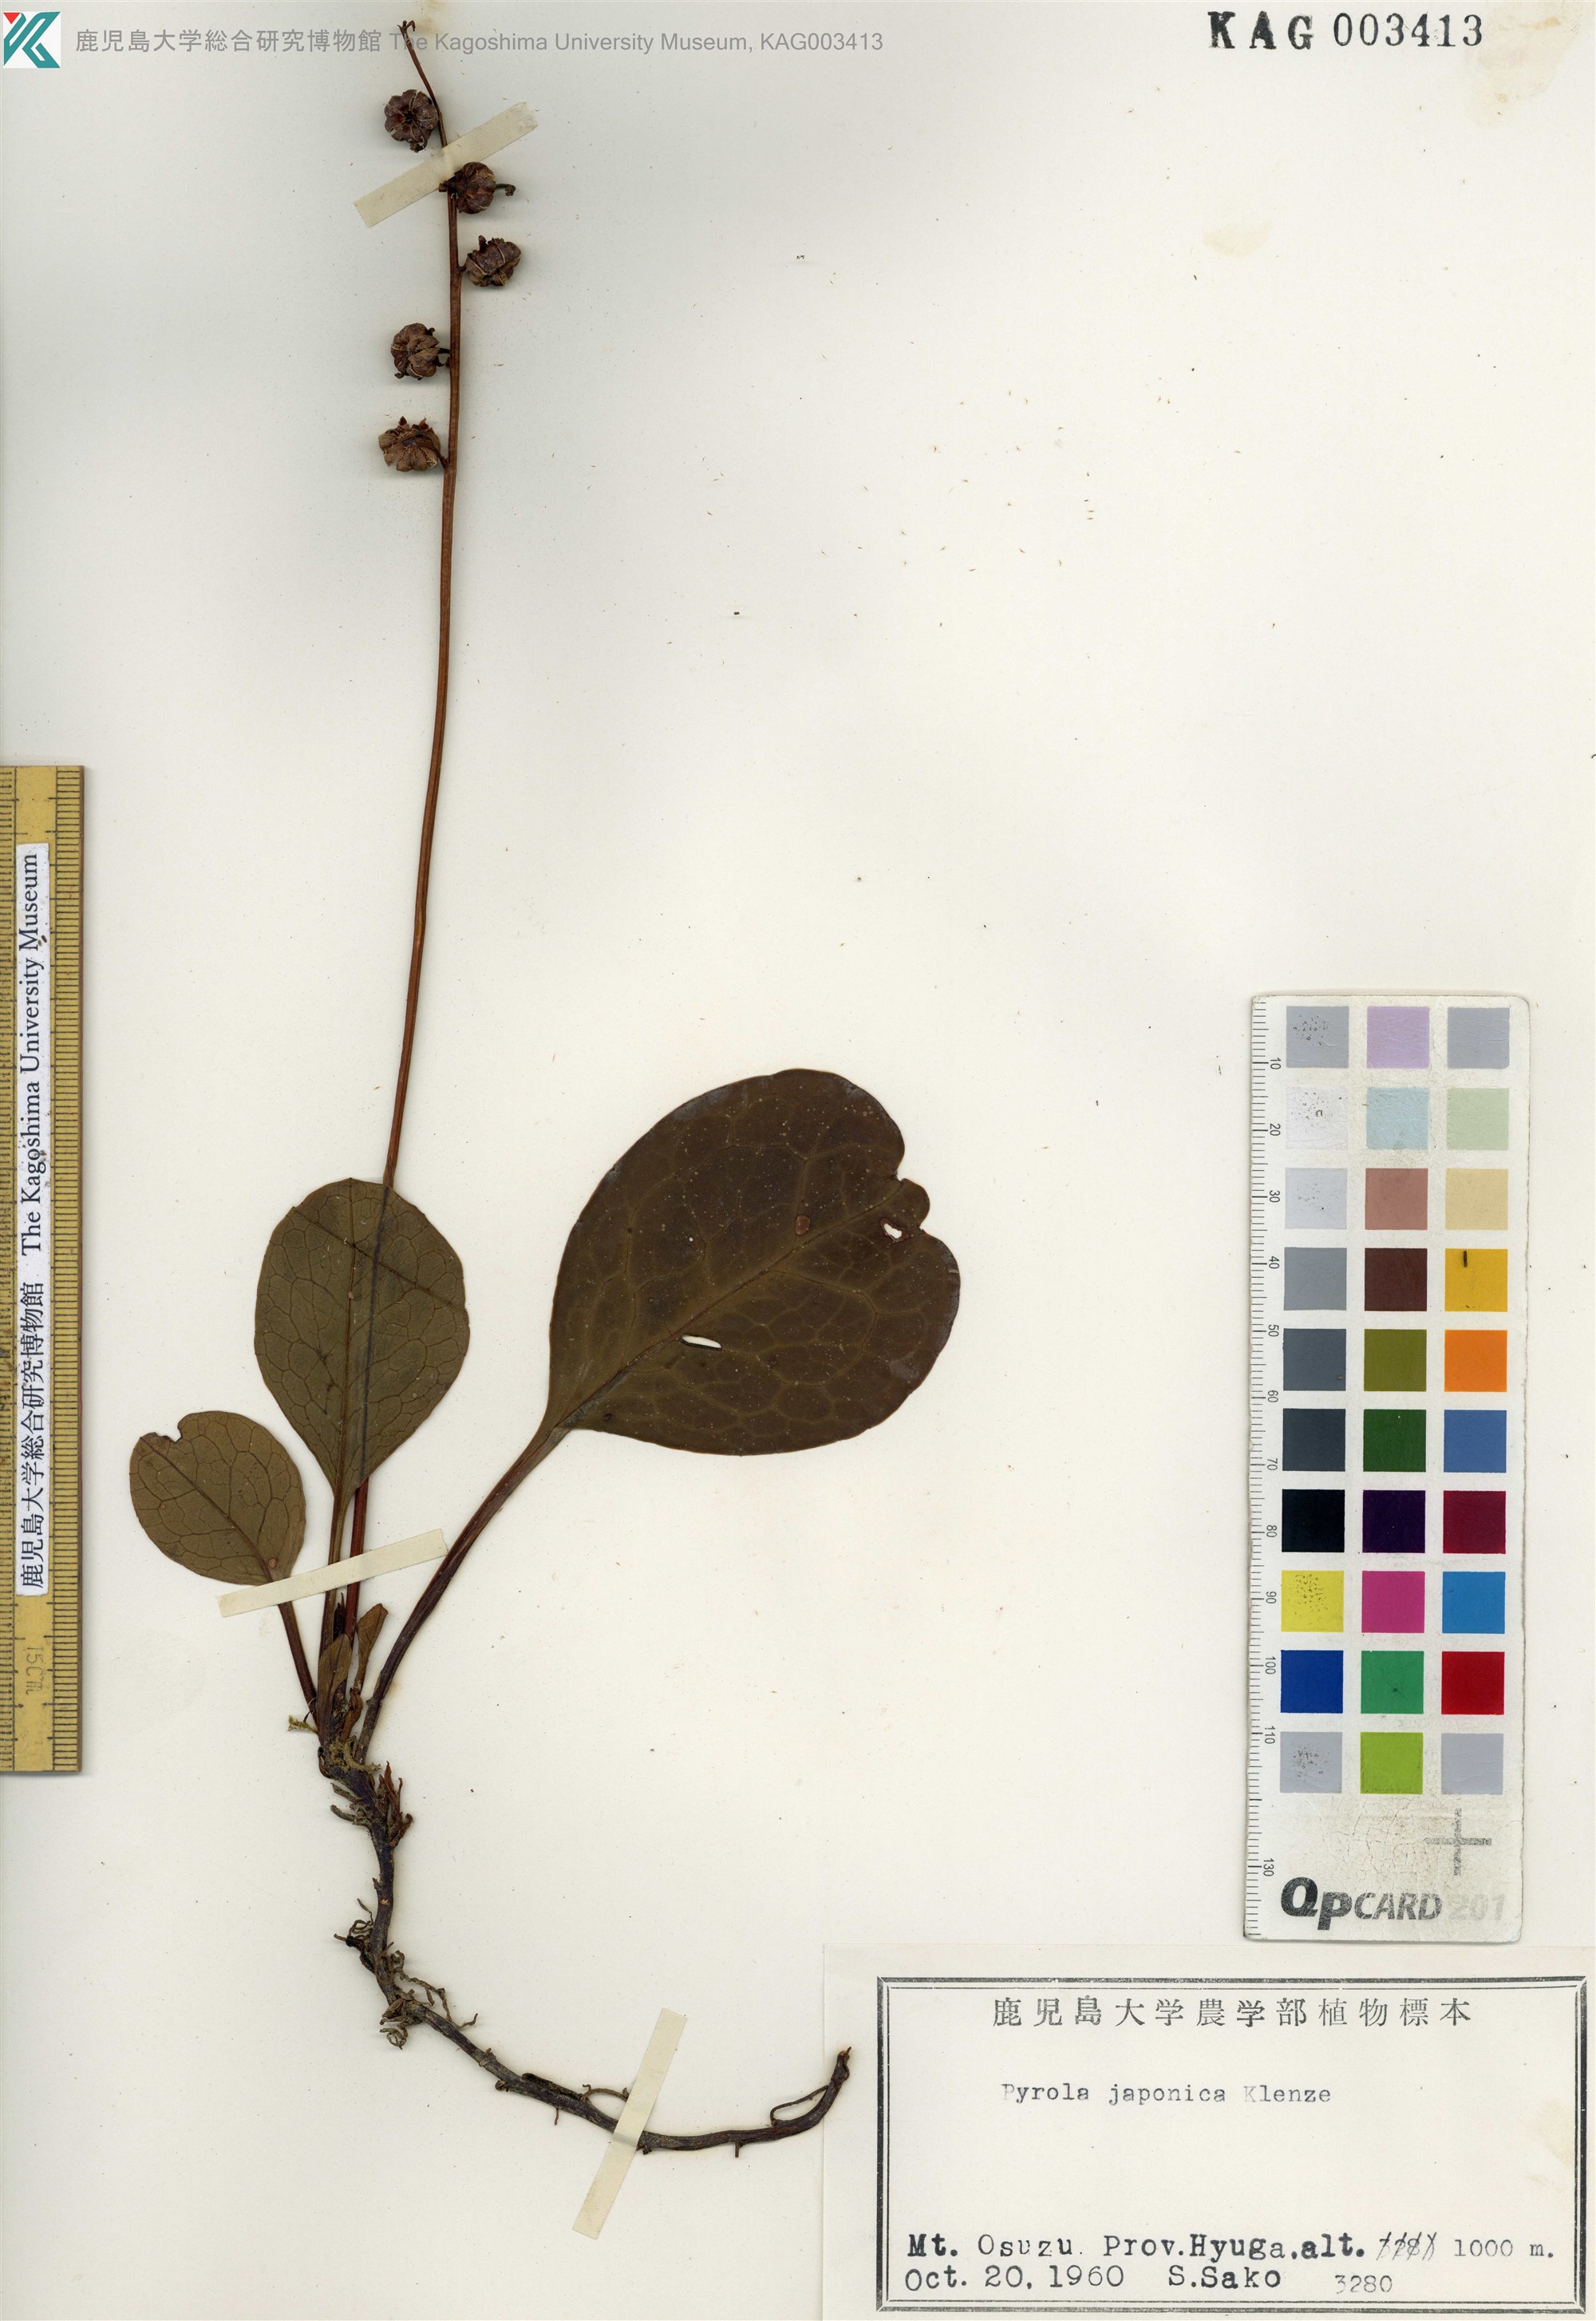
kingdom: Plantae
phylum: Tracheophyta
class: Magnoliopsida
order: Ericales
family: Ericaceae
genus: Pyrola
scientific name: Pyrola japonica
